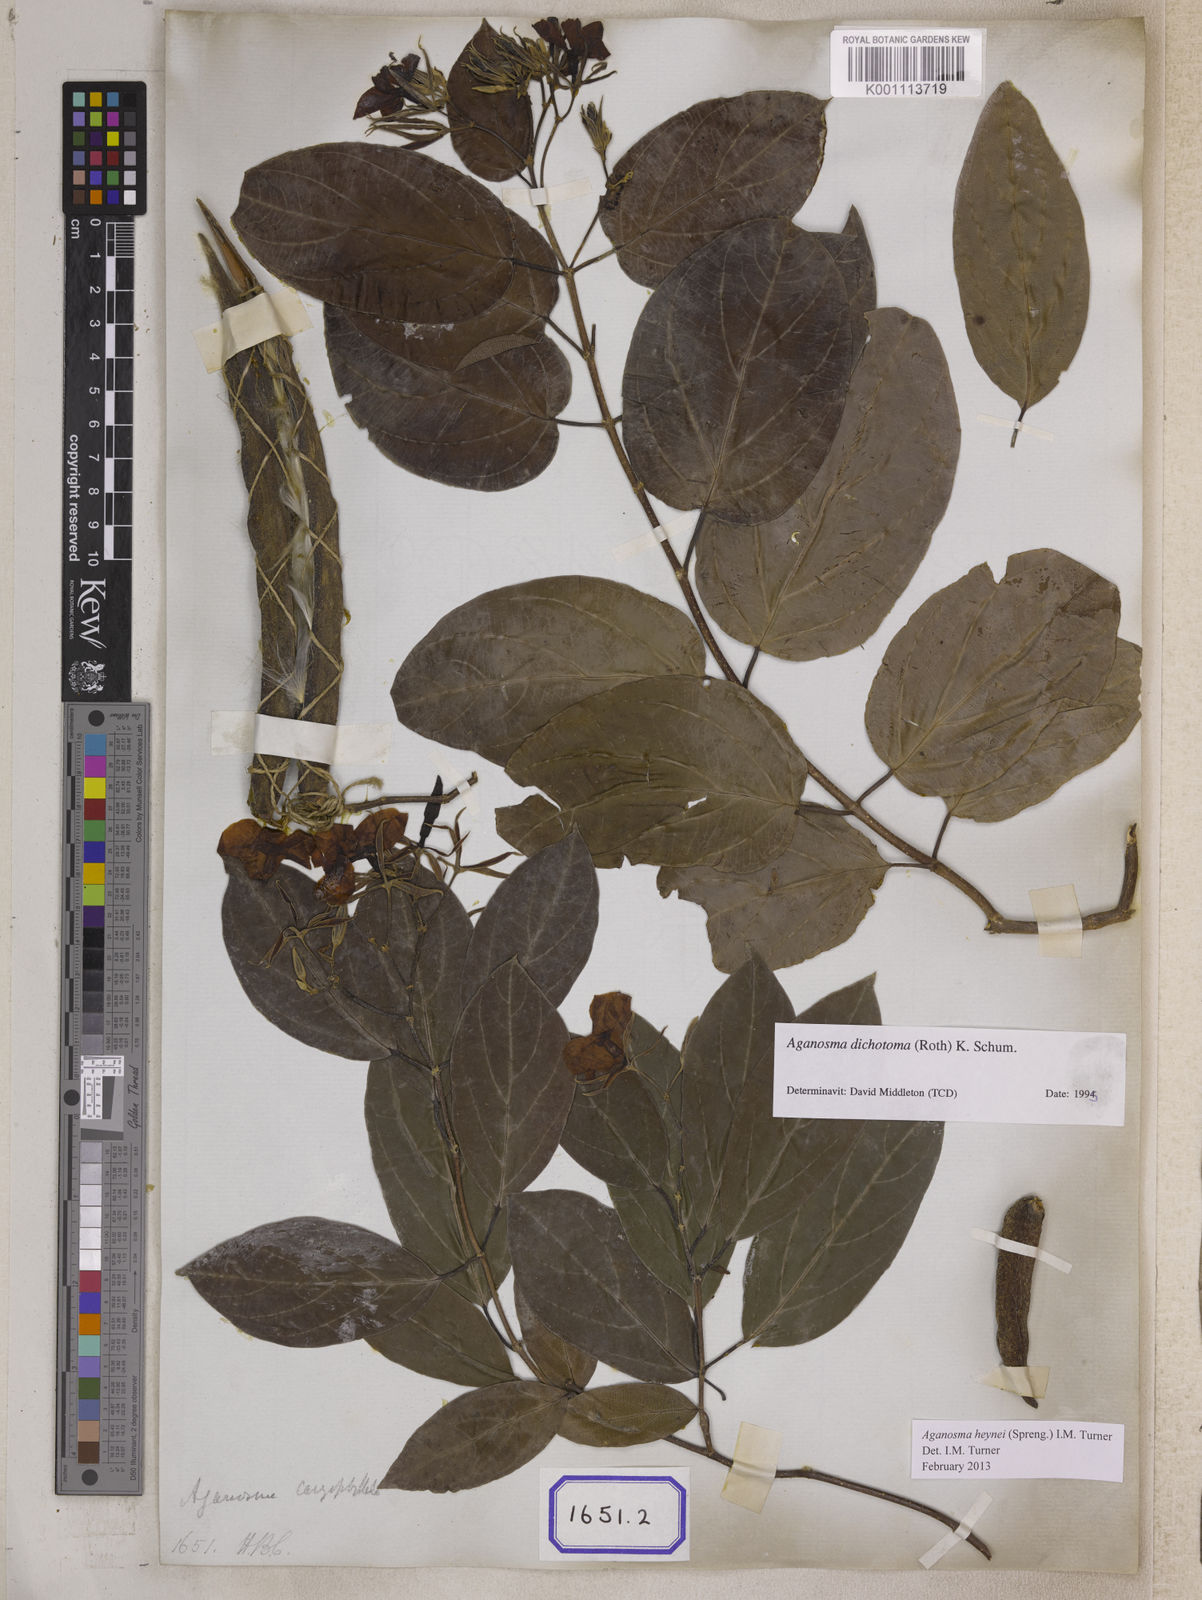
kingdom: Plantae
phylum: Tracheophyta
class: Magnoliopsida
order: Gentianales
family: Apocynaceae
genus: Kamettia
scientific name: Kamettia caryophyllata
